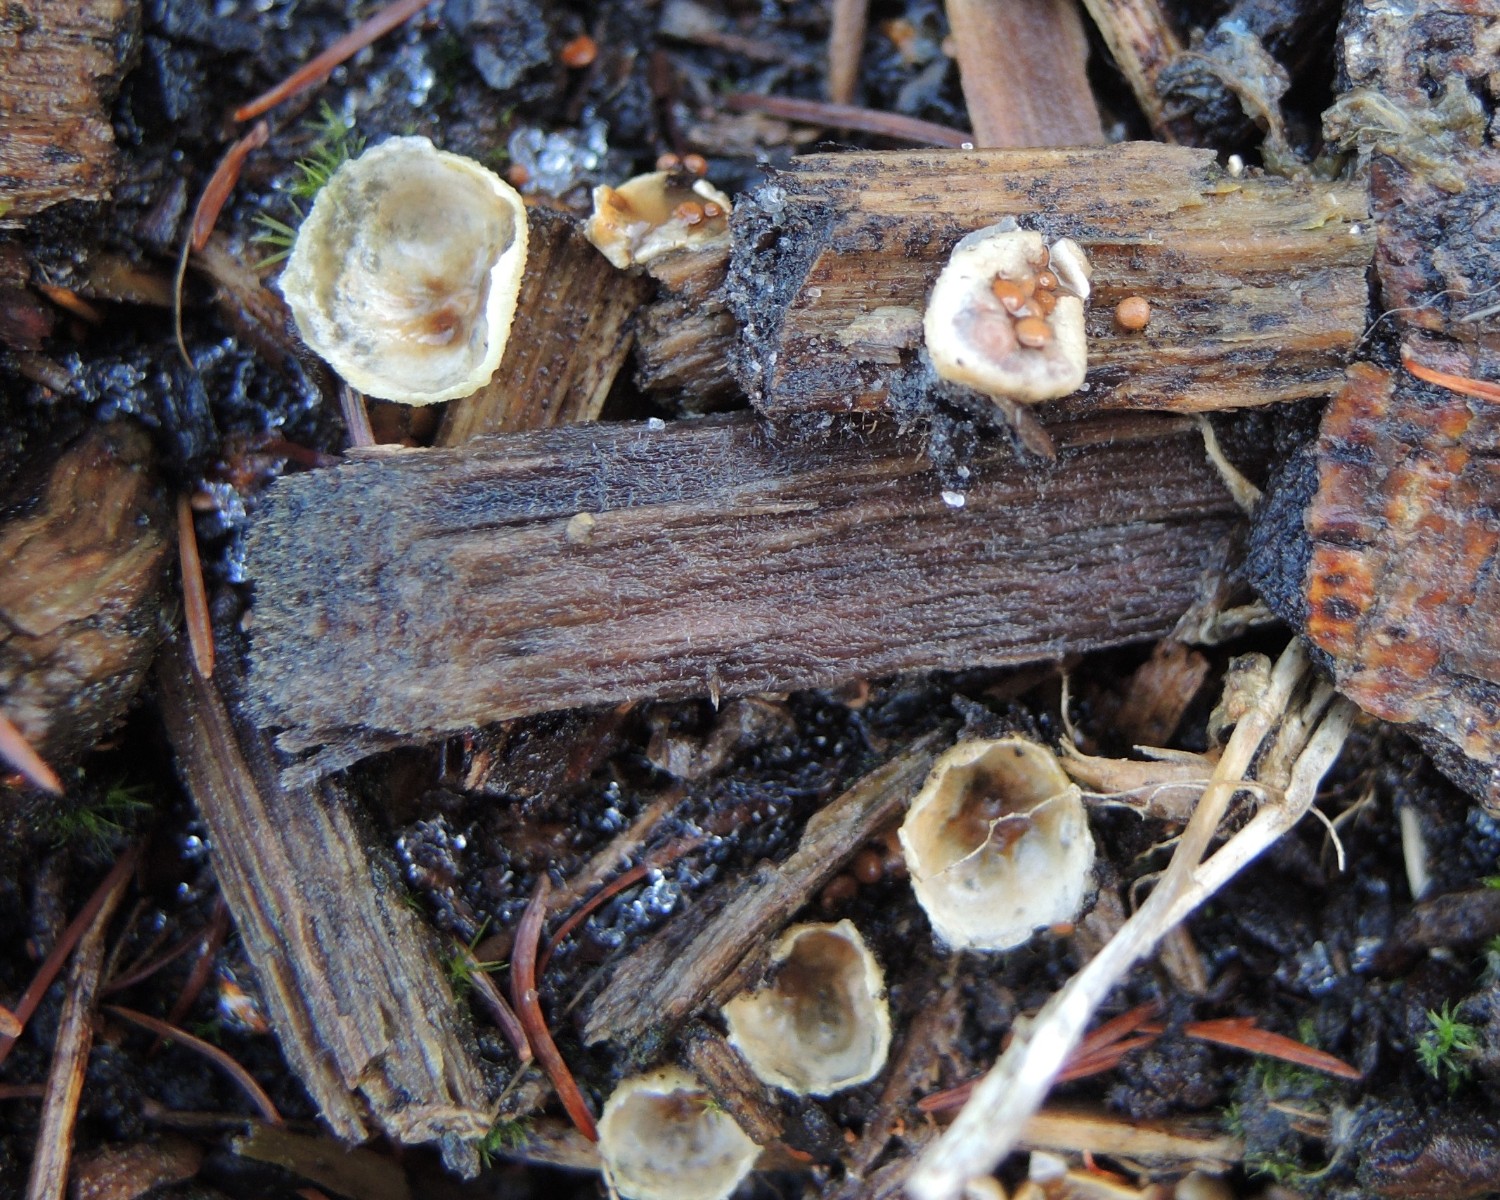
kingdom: Fungi
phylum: Basidiomycota
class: Agaricomycetes
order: Agaricales
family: Agaricaceae
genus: Nidularia
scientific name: Nidularia deformis
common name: pudesvamp
